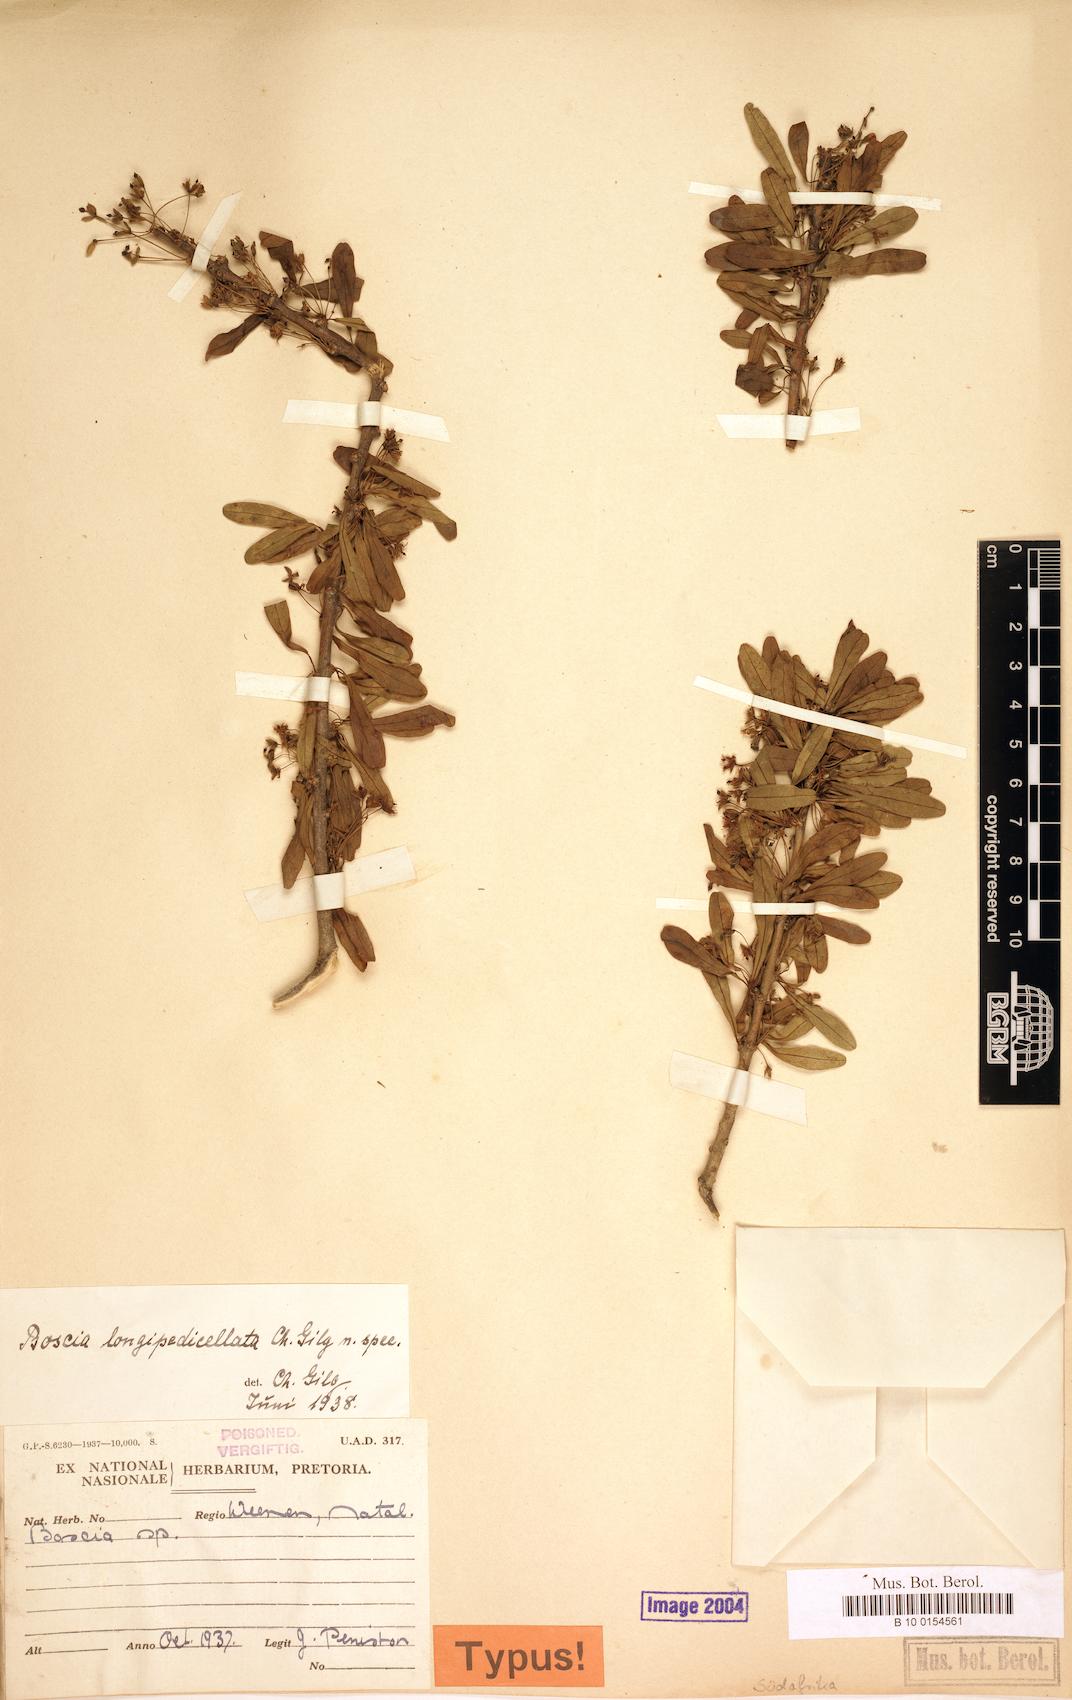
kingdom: Plantae
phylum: Tracheophyta
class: Magnoliopsida
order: Brassicales
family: Capparaceae
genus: Boscia
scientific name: Boscia foetida
